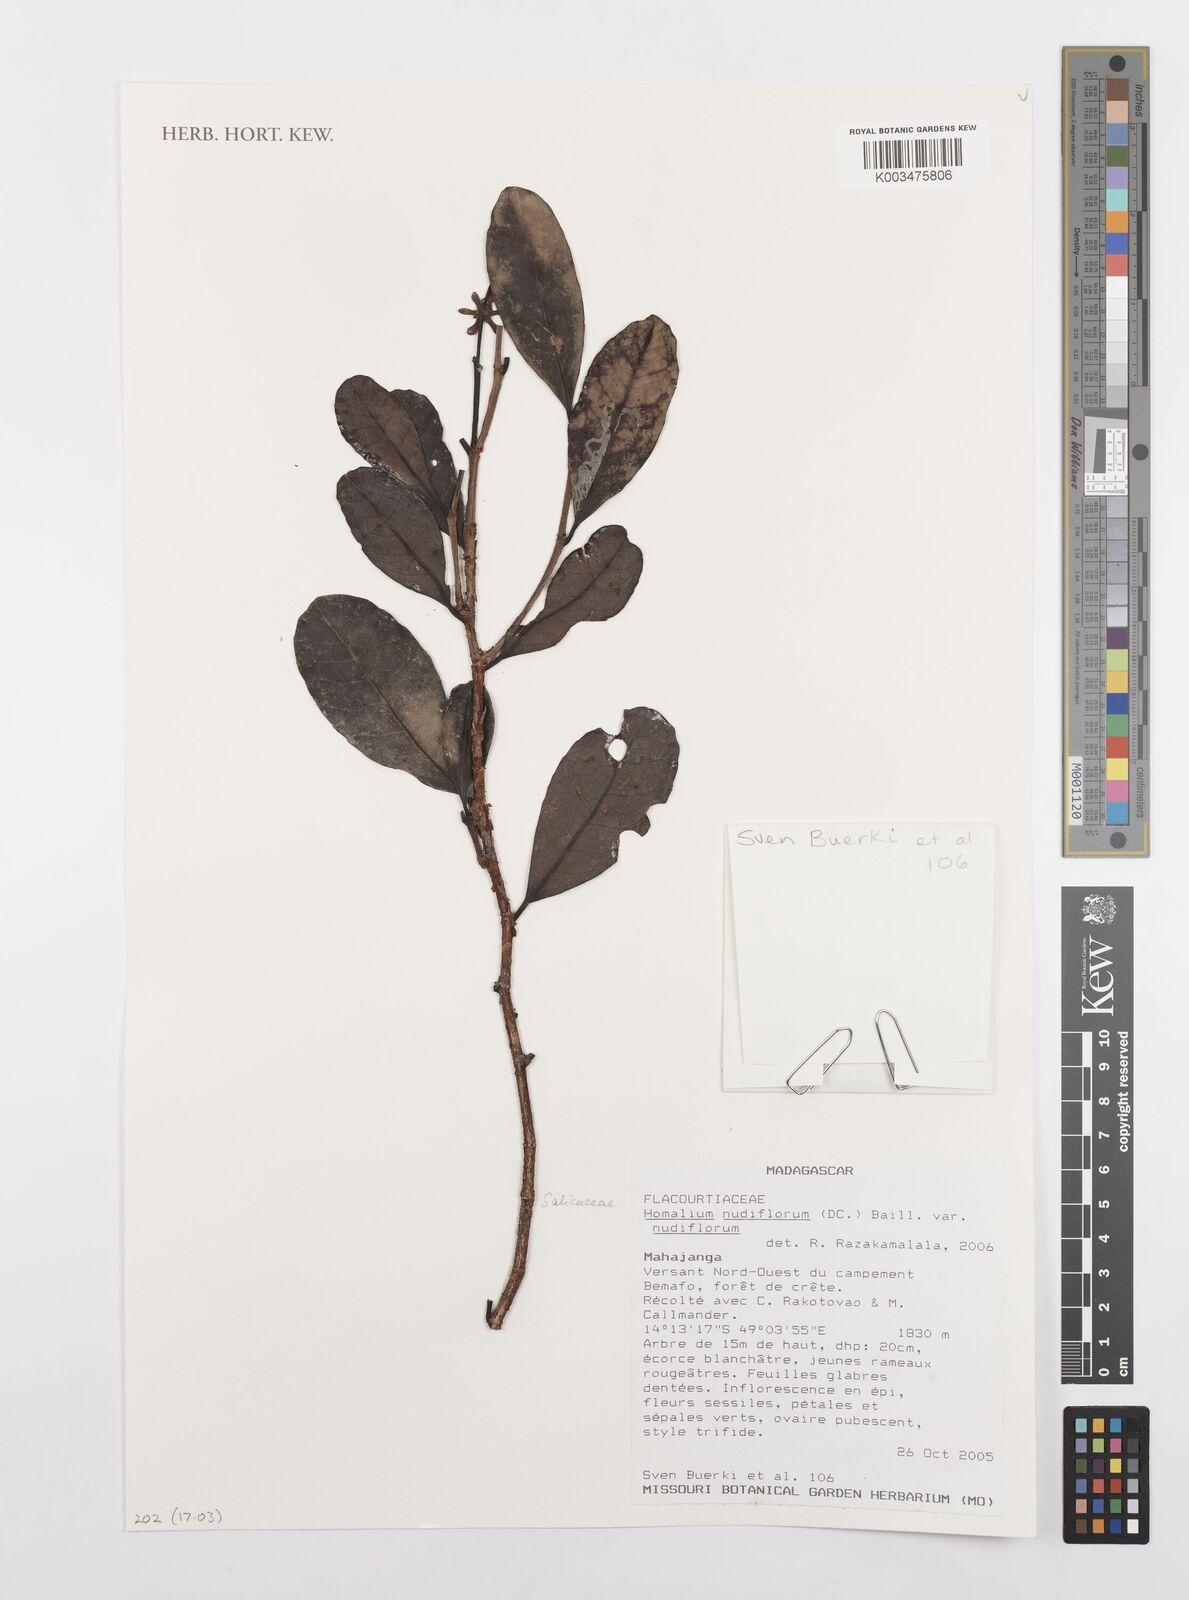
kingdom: Plantae
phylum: Tracheophyta
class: Magnoliopsida
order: Malpighiales
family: Salicaceae
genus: Homalium
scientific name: Homalium nudiflorum
